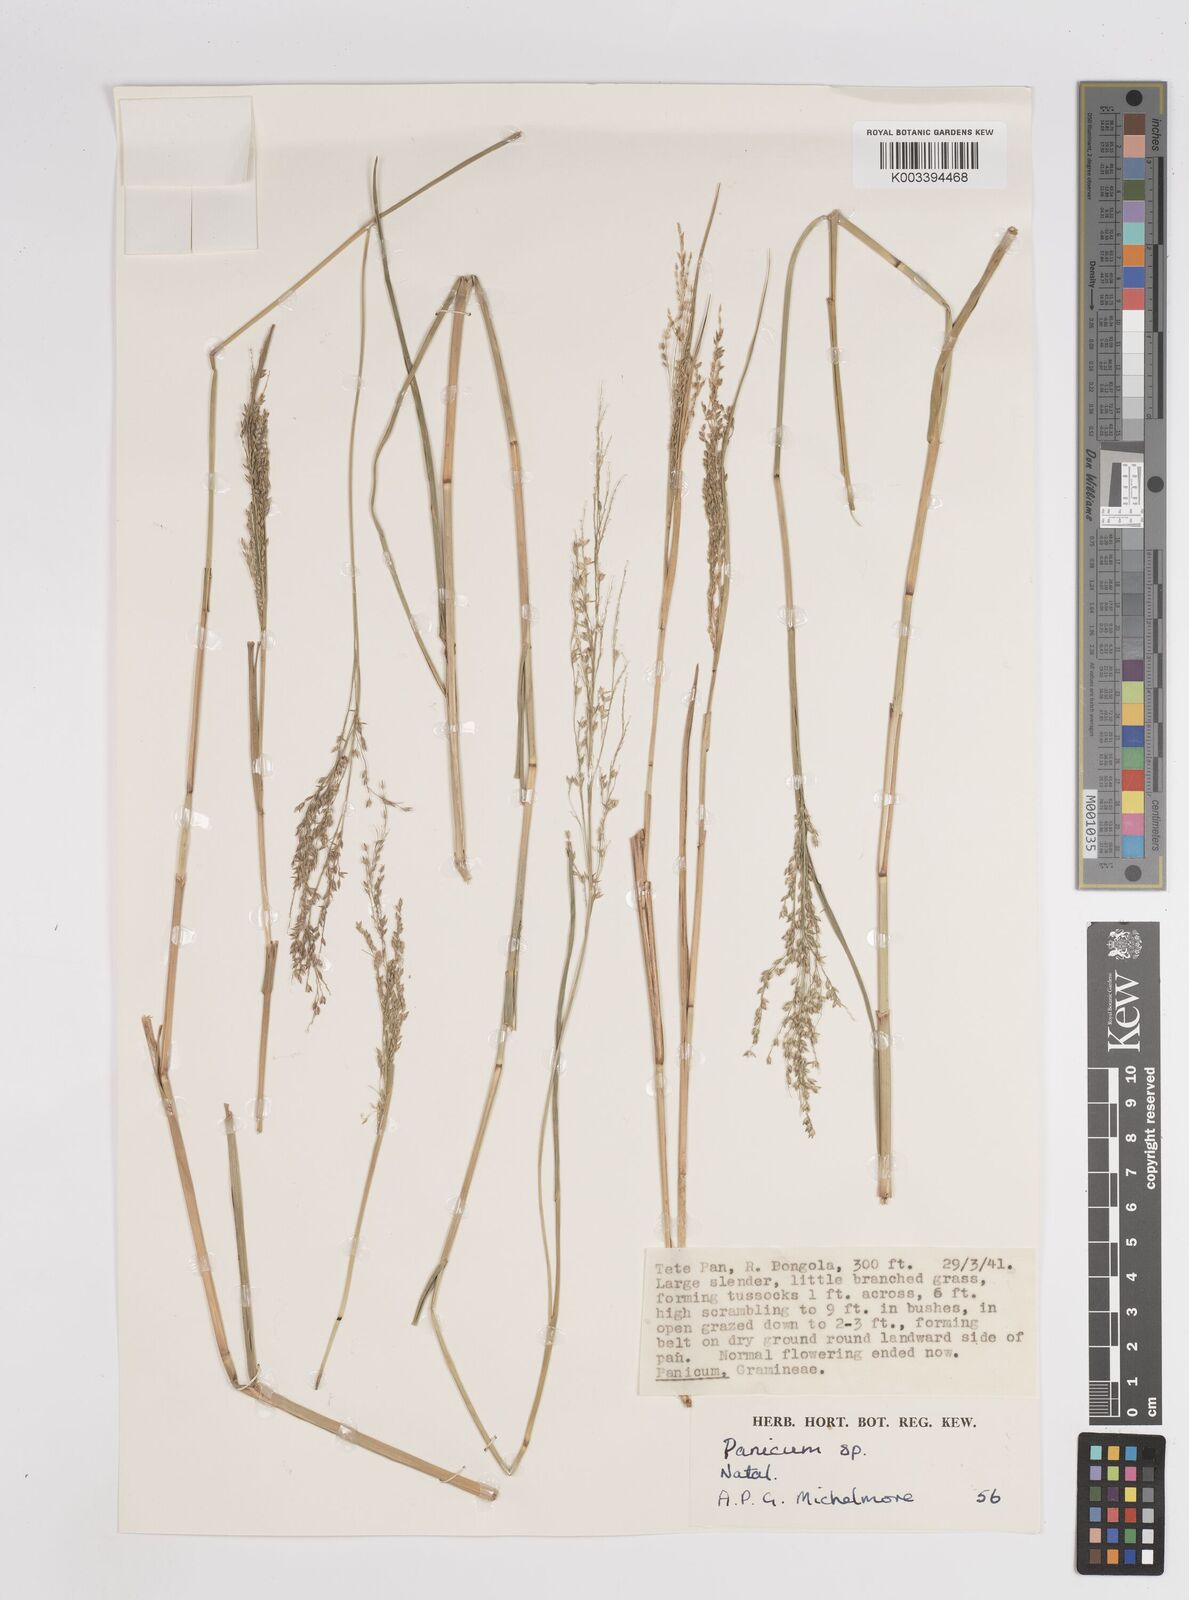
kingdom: Plantae
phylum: Tracheophyta
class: Liliopsida
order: Poales
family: Poaceae
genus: Panicum
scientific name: Panicum
